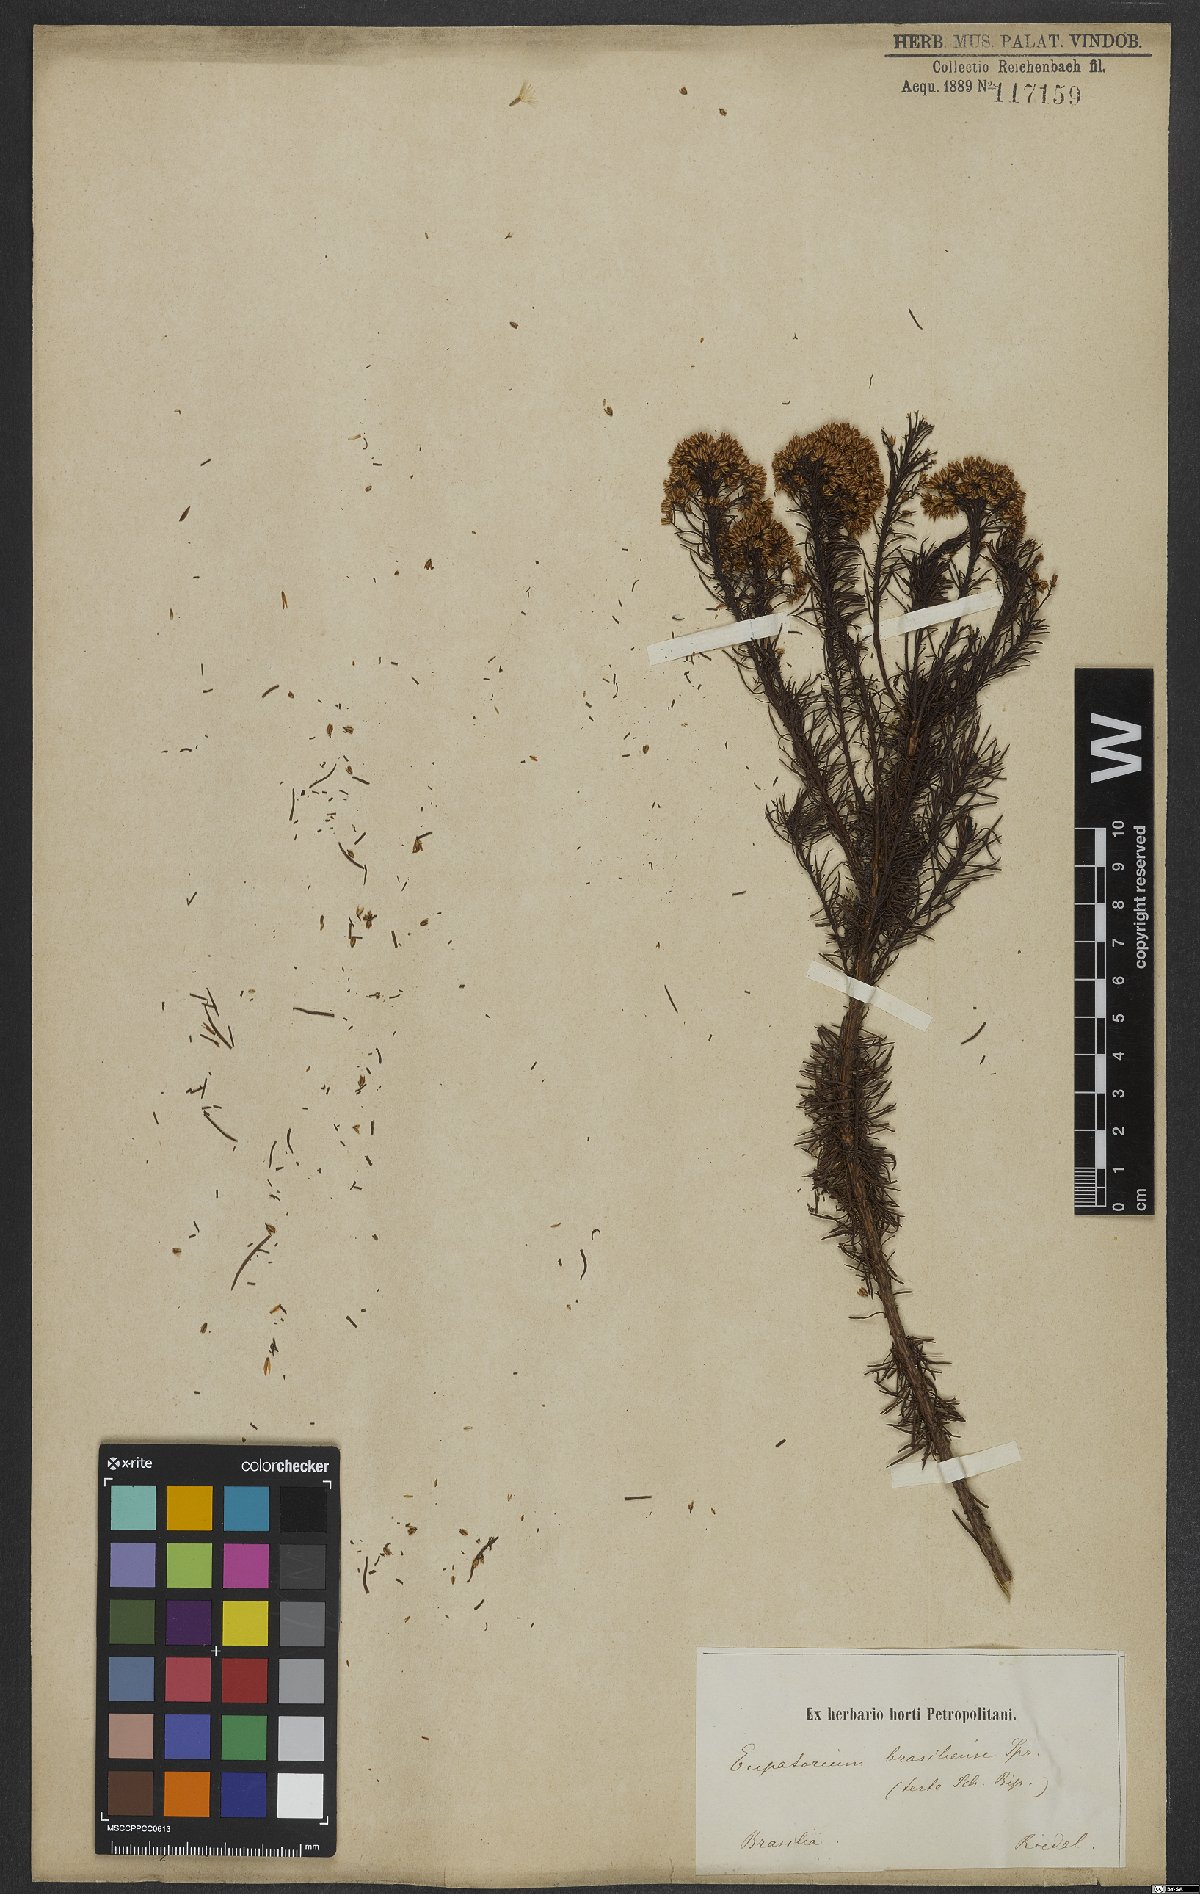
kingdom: Plantae
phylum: Tracheophyta
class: Magnoliopsida
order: Asterales
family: Asteraceae
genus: Pseudobrickellia
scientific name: Pseudobrickellia brasiliensis
